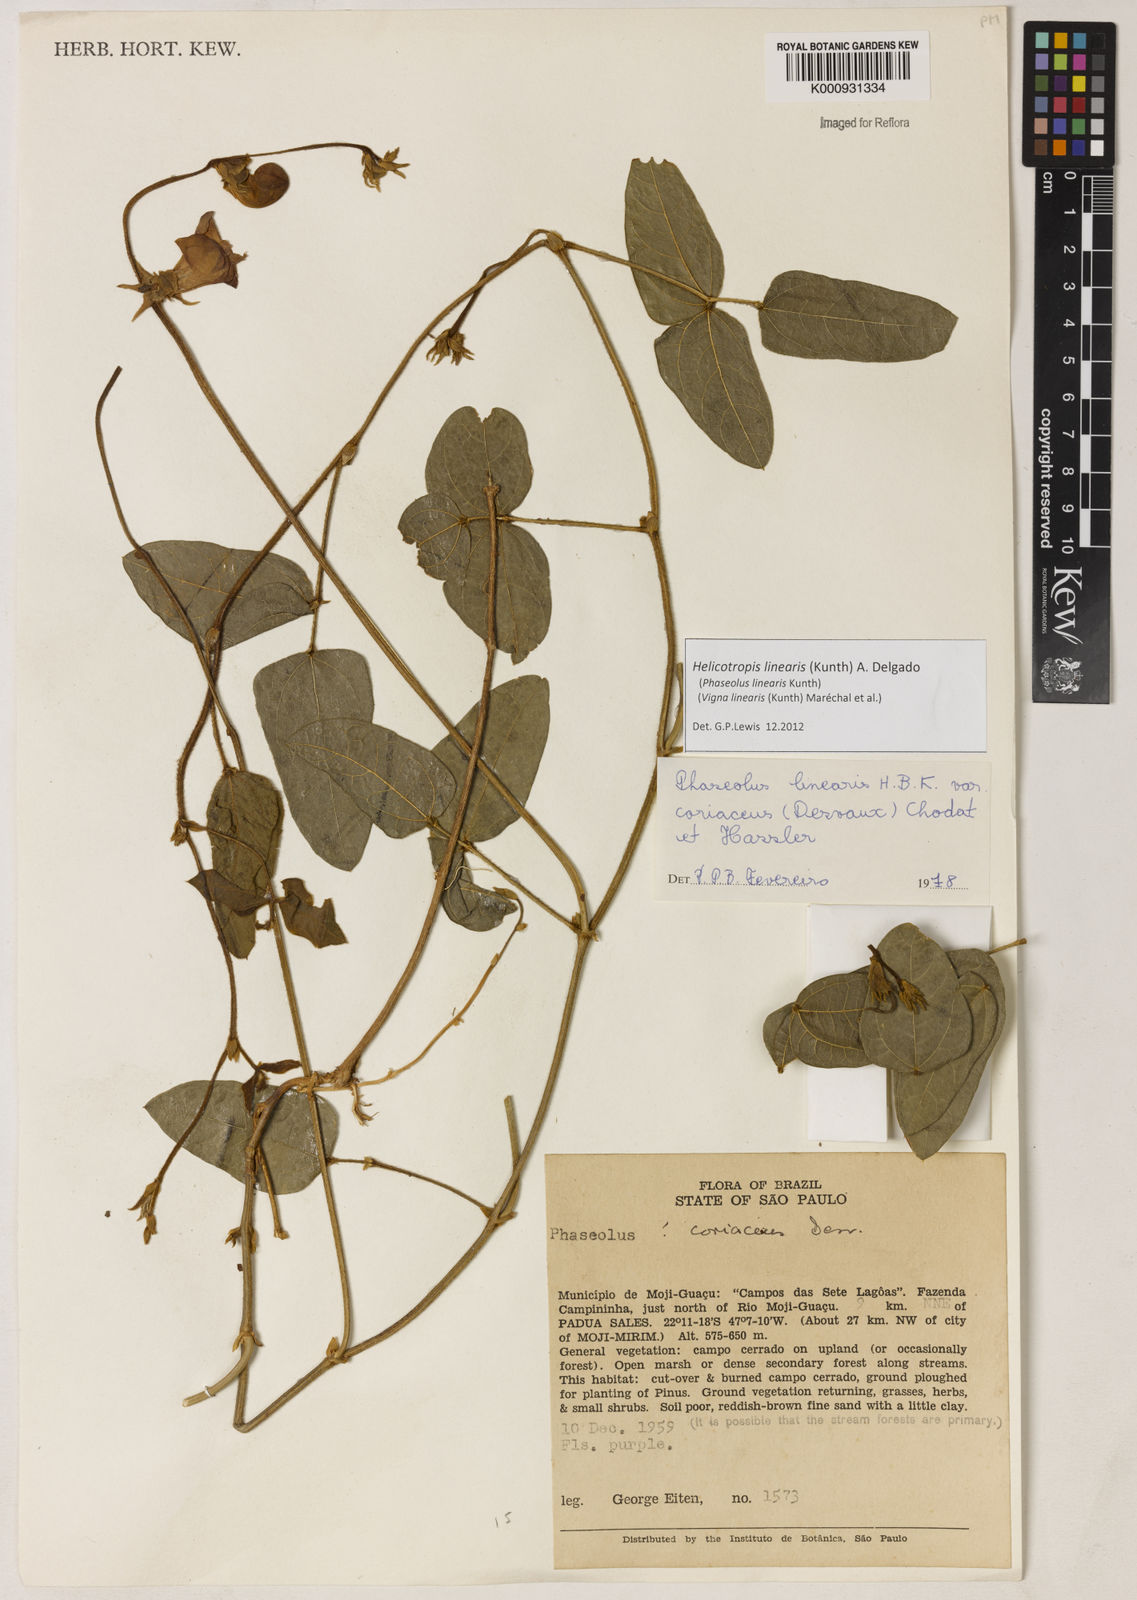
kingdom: Plantae
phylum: Tracheophyta
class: Magnoliopsida
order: Fabales
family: Fabaceae
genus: Helicotropis
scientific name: Helicotropis linearis
